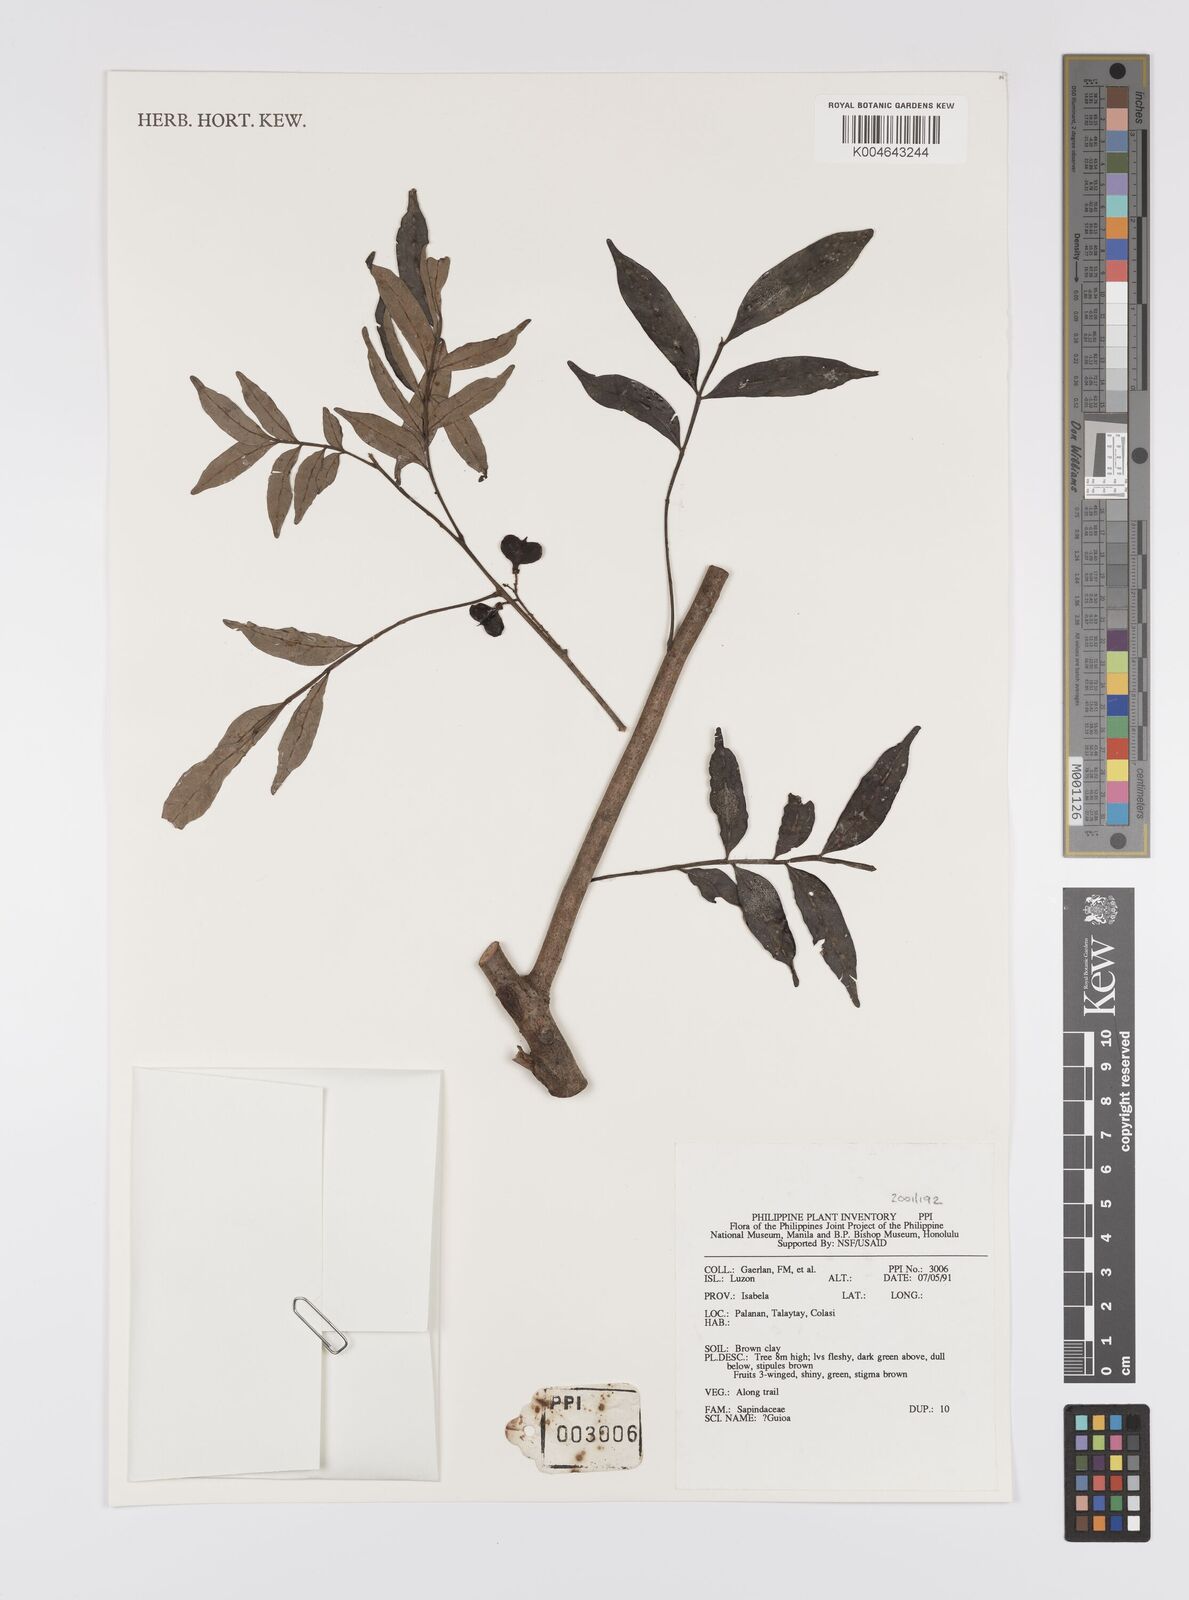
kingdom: Plantae
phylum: Tracheophyta
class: Magnoliopsida
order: Sapindales
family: Sapindaceae
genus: Guioa
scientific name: Guioa
